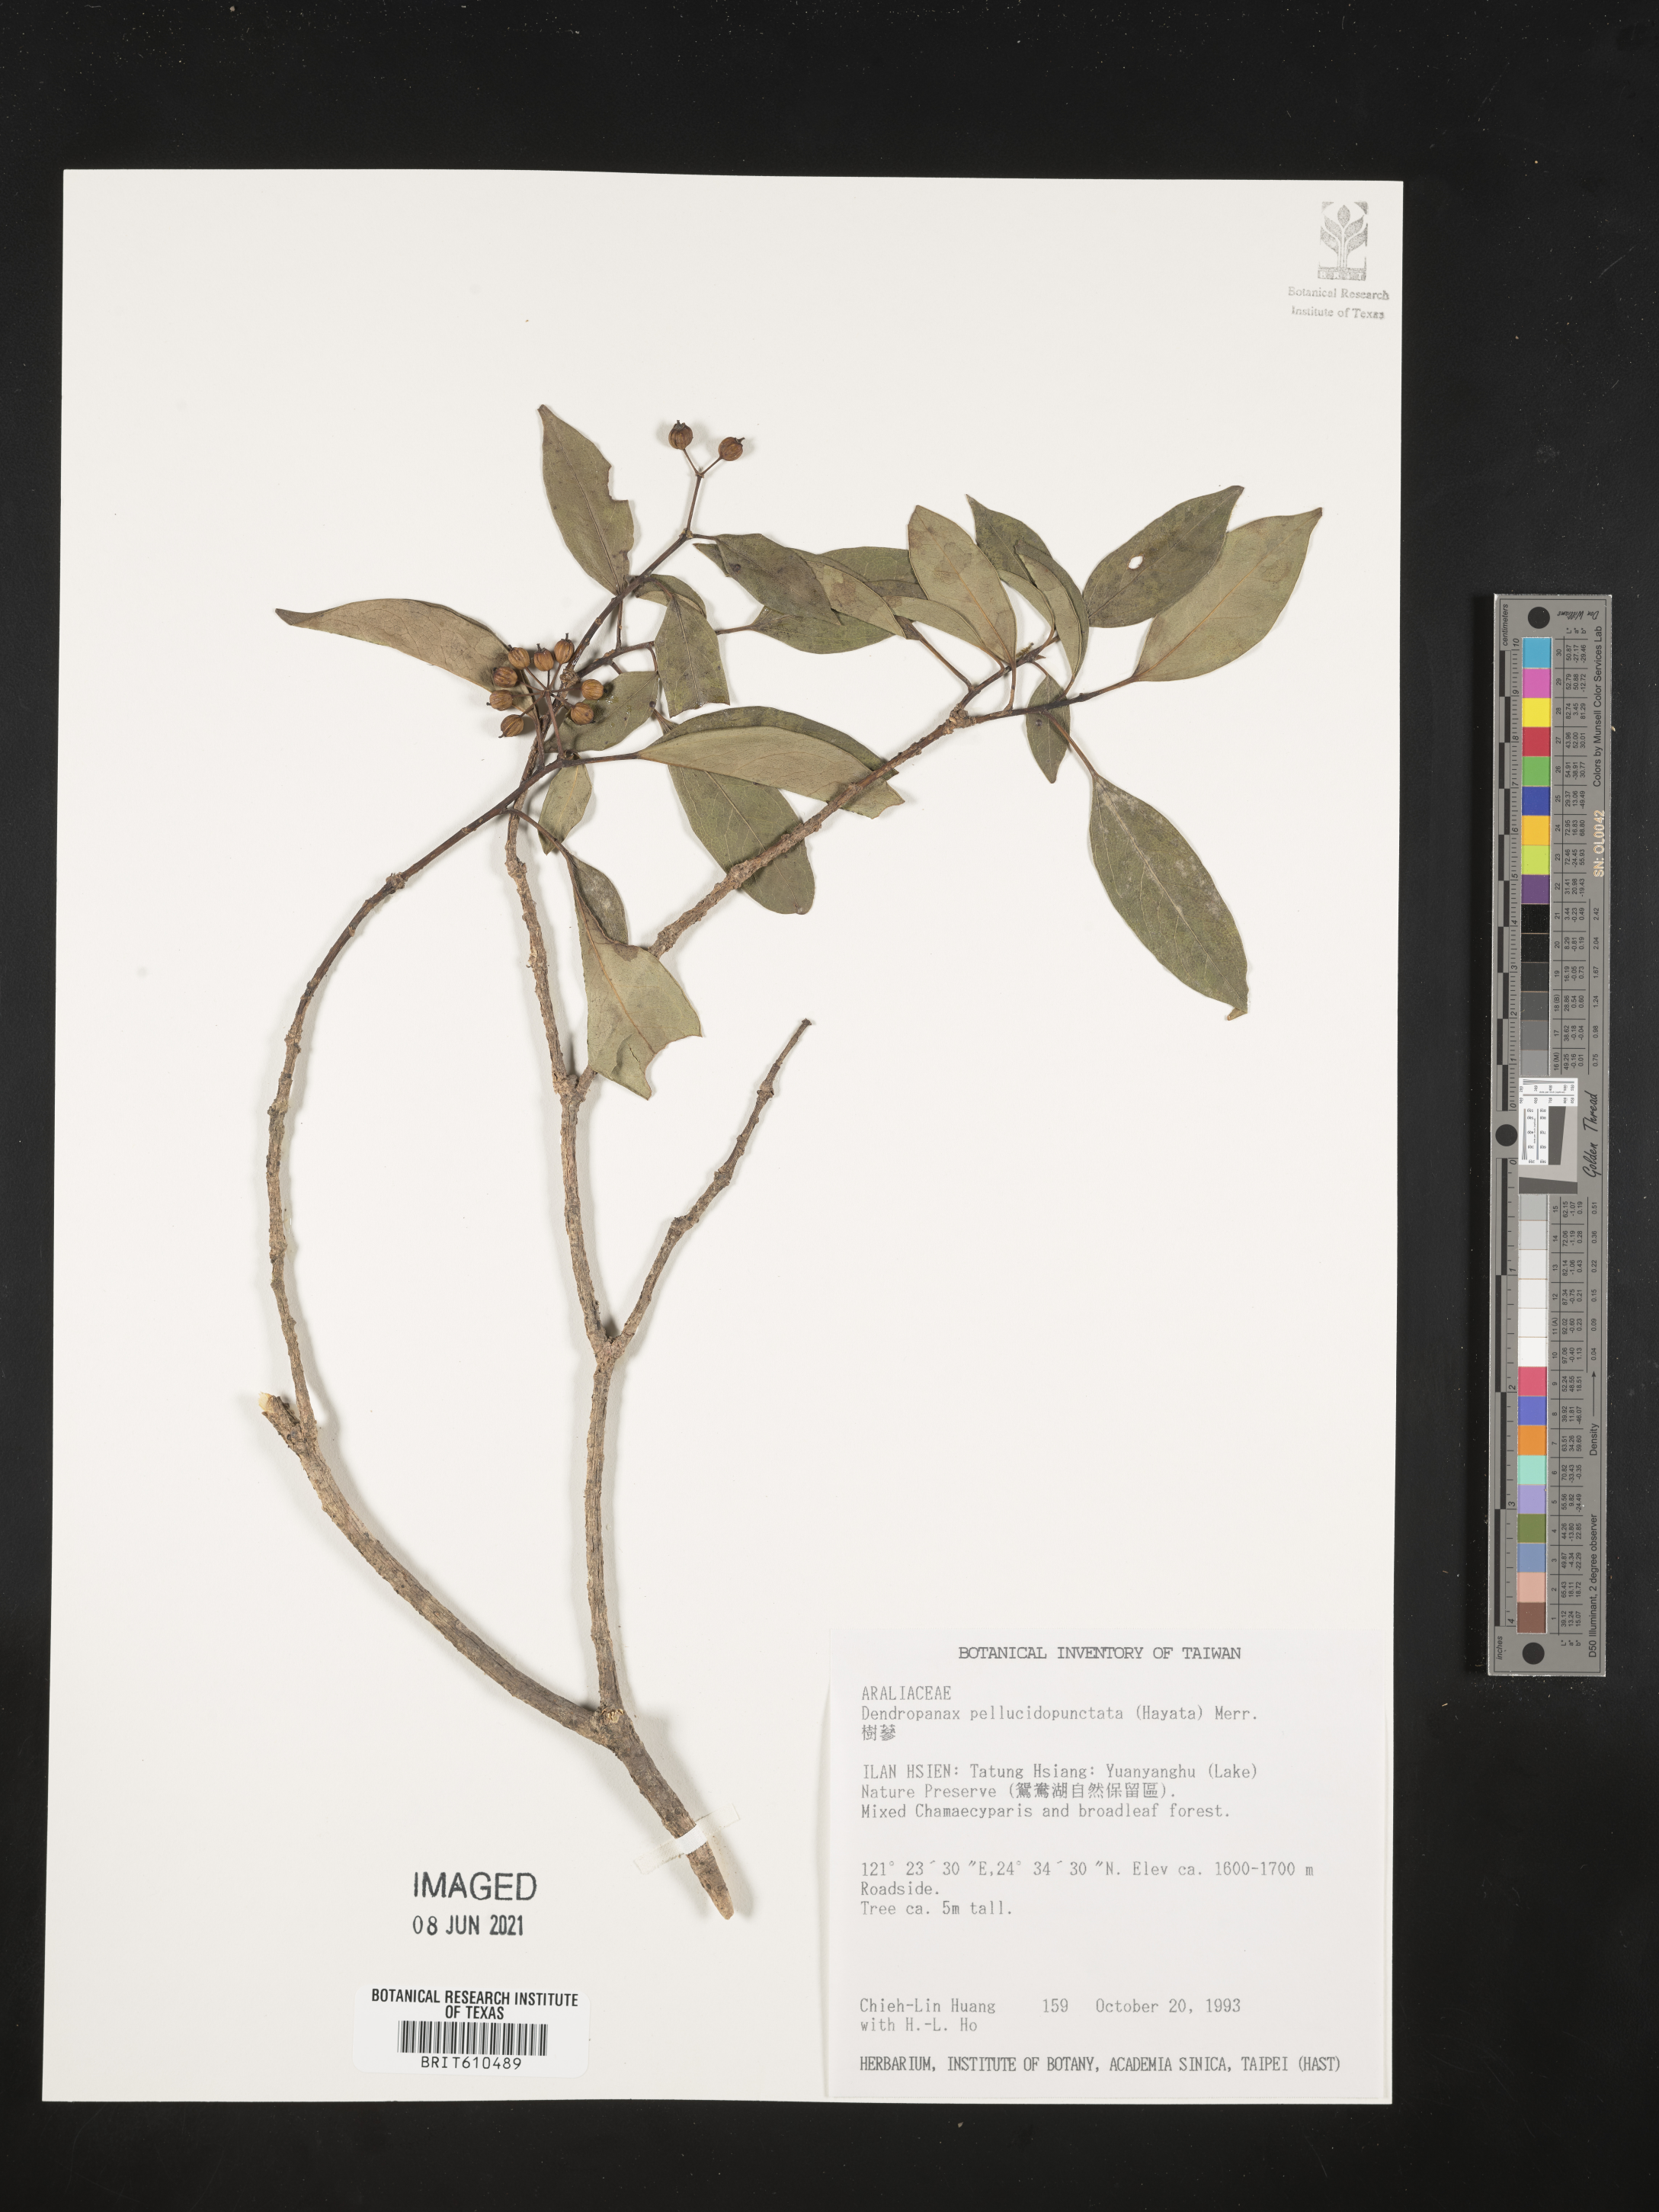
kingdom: Plantae
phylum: Tracheophyta
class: Magnoliopsida
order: Apiales
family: Araliaceae
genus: Dendropanax
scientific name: Dendropanax pellucidopunctatus
